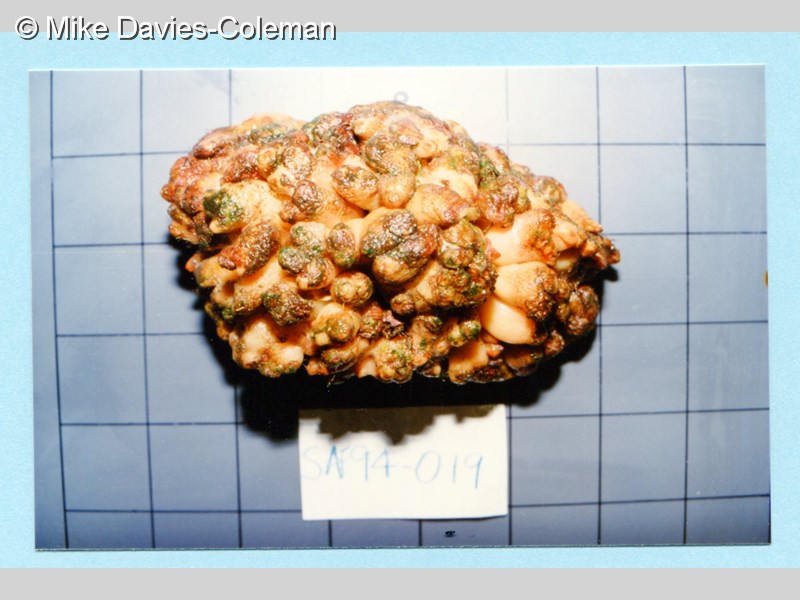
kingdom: Animalia
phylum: Chordata
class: Ascidiacea
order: Stolidobranchia
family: Styelidae
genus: Polycarpa
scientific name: Polycarpa
